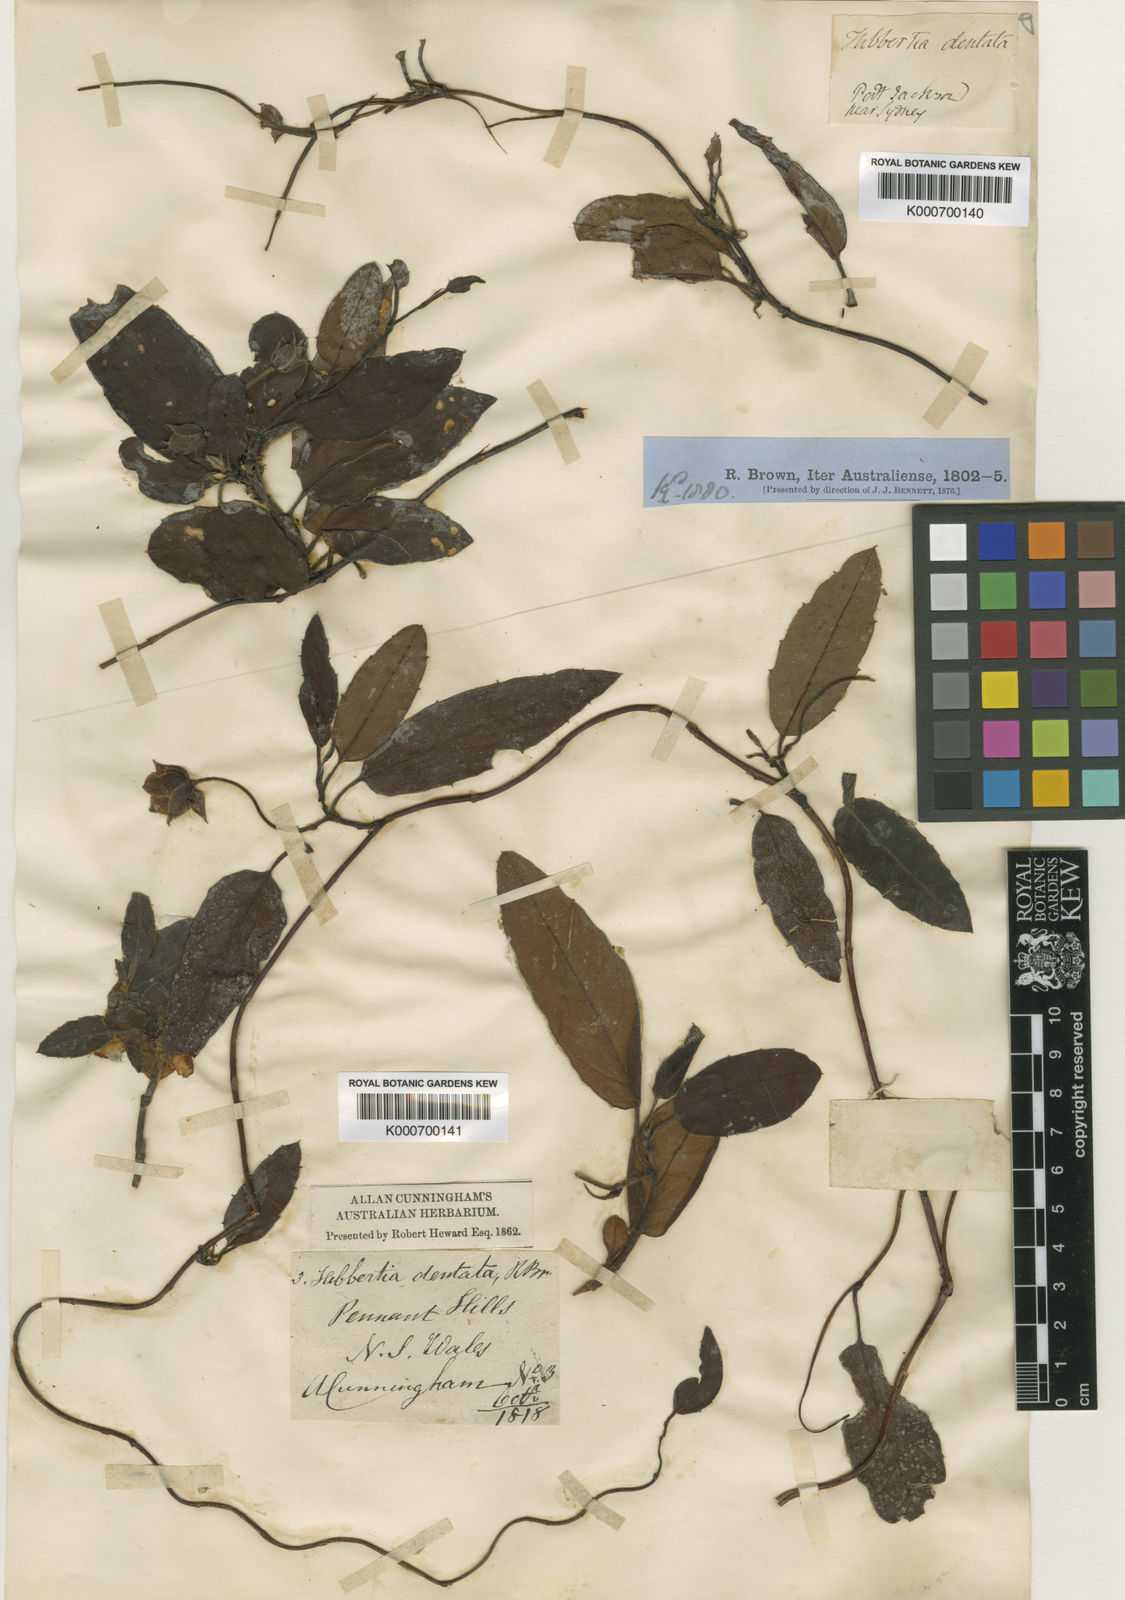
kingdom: Plantae
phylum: Tracheophyta
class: Magnoliopsida
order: Dilleniales
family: Dilleniaceae
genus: Hibbertia
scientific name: Hibbertia
